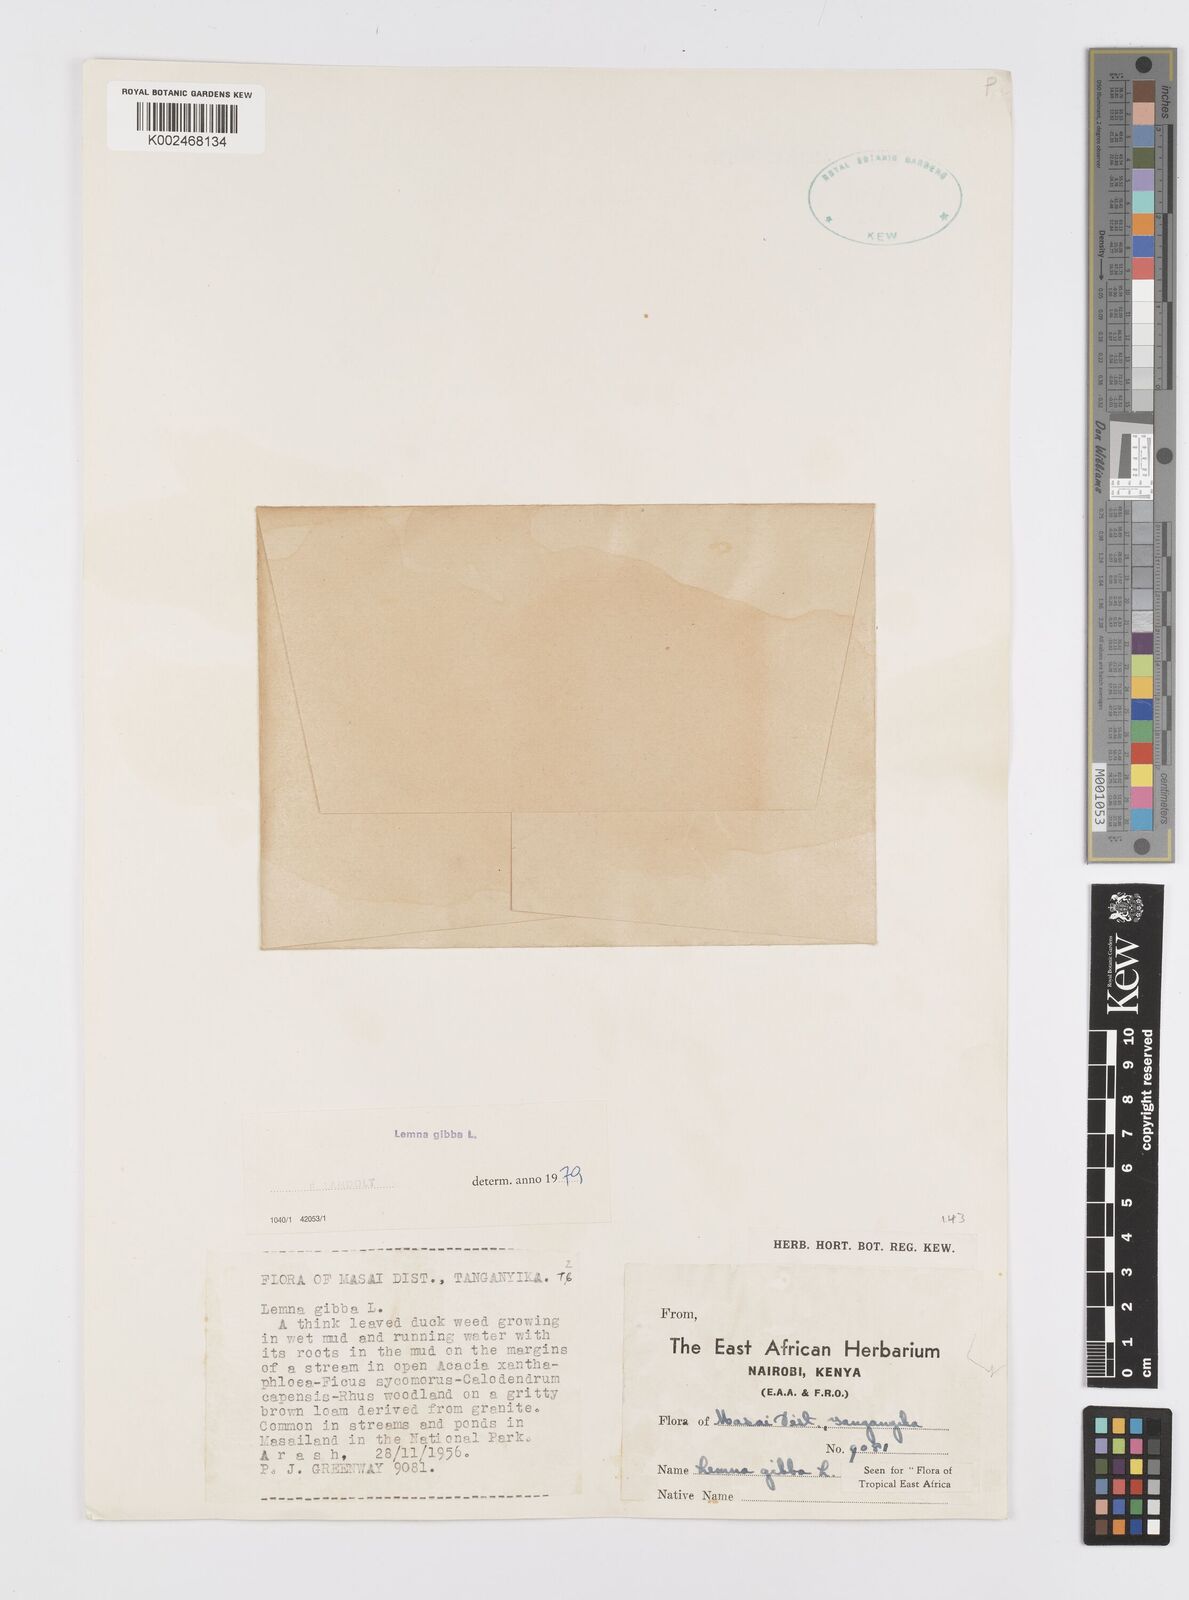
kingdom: Plantae
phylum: Tracheophyta
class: Liliopsida
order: Alismatales
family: Araceae
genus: Lemna
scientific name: Lemna gibba
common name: Fat duckweed
